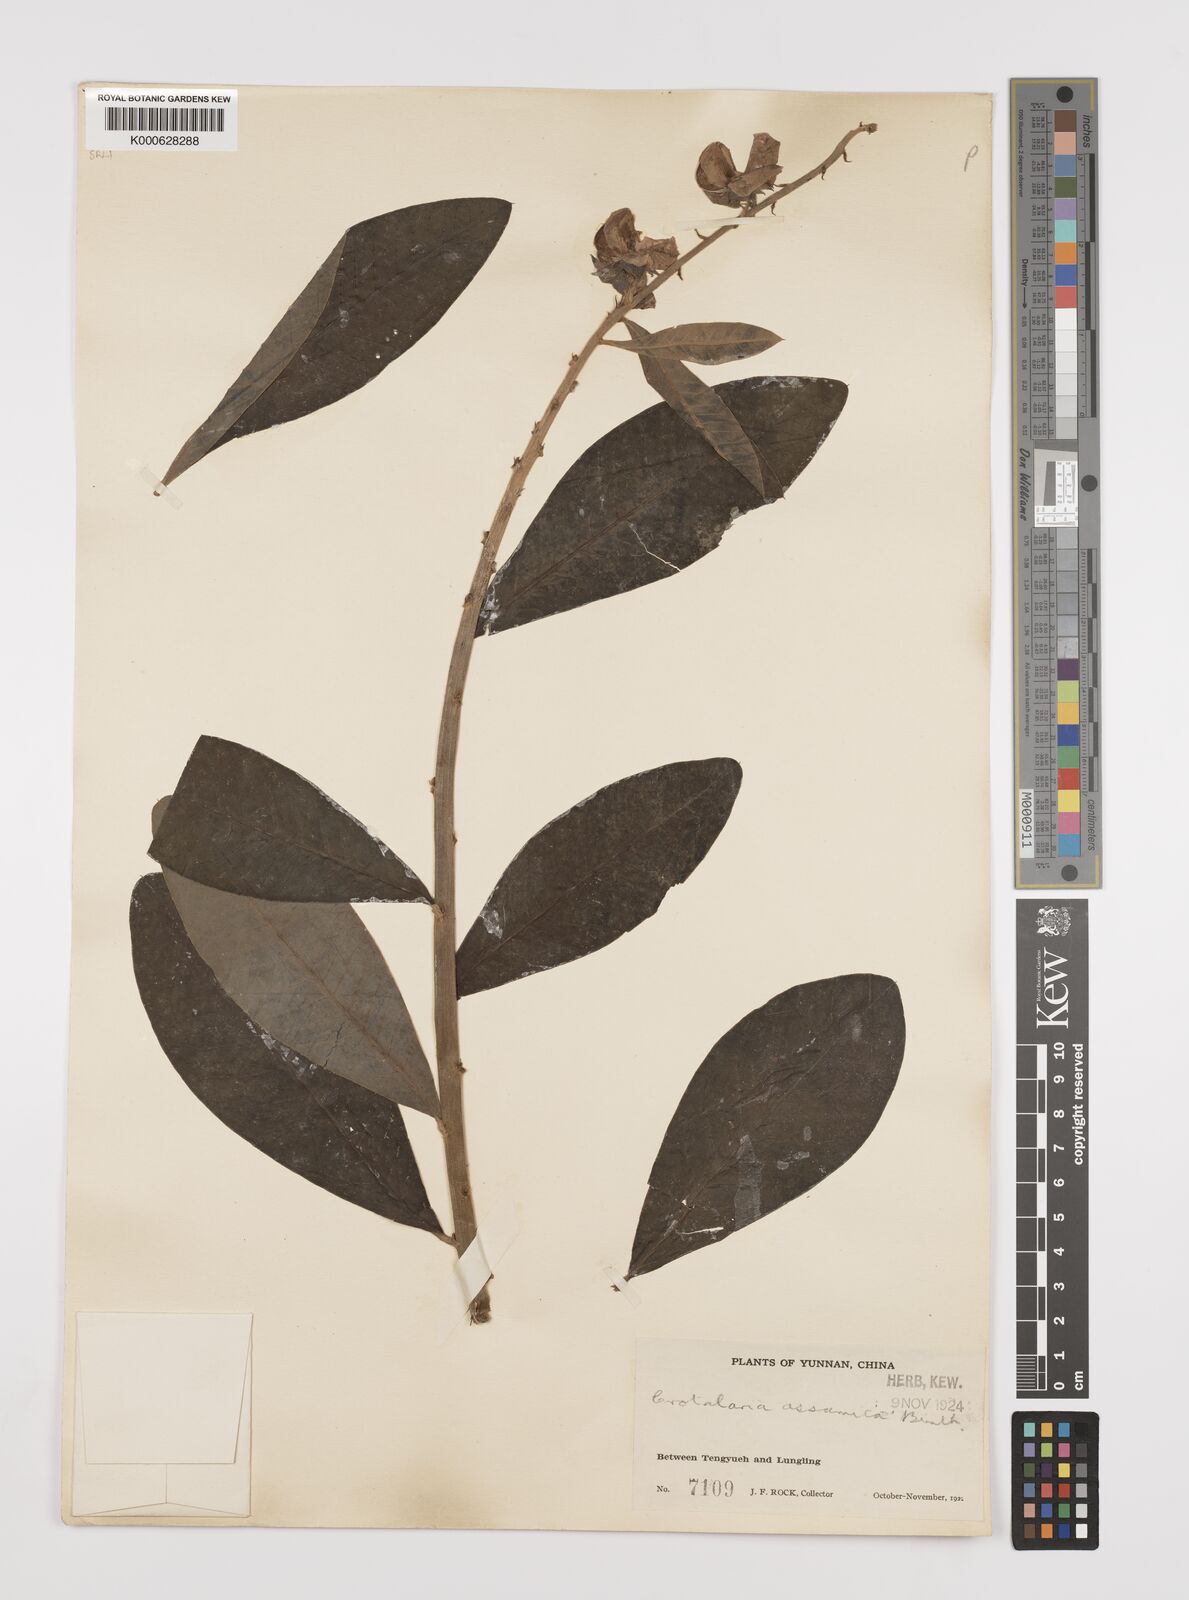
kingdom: Plantae
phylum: Tracheophyta
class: Magnoliopsida
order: Fabales
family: Fabaceae
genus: Crotalaria
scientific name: Crotalaria sericea
